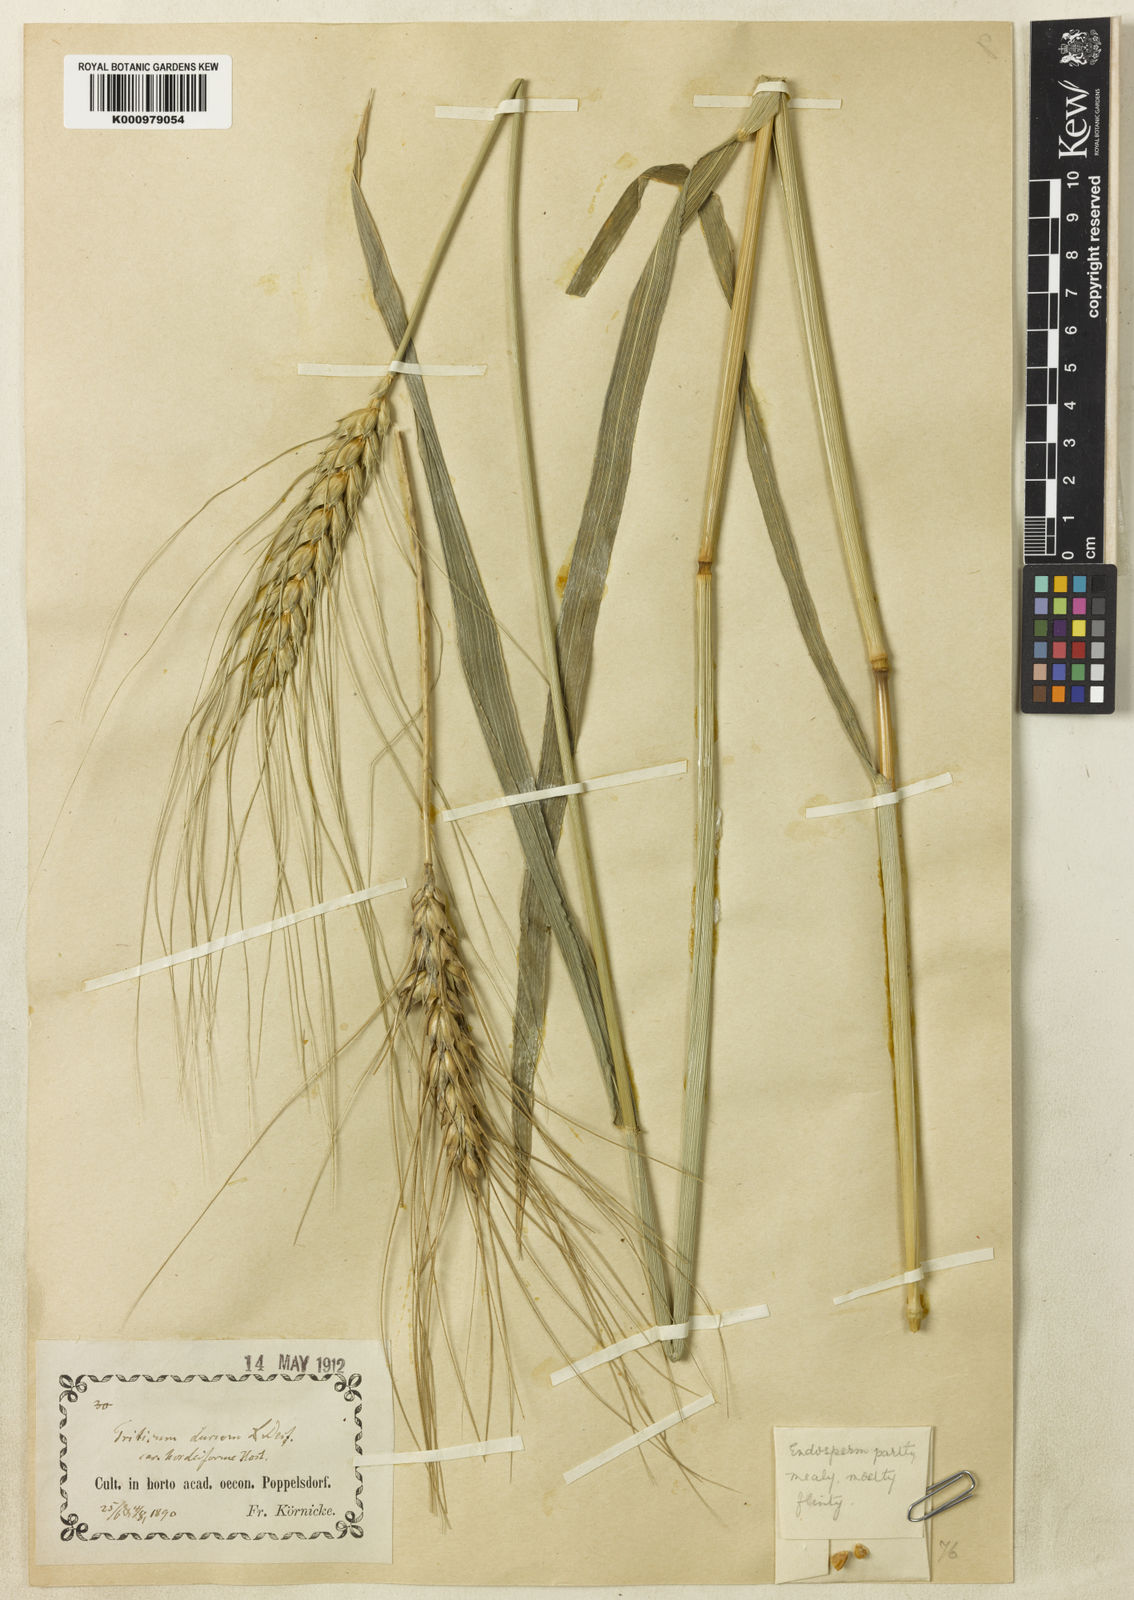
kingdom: Plantae
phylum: Tracheophyta
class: Liliopsida
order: Poales
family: Poaceae
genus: Triticum
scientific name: Triticum turgidum
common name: Rivet wheat
